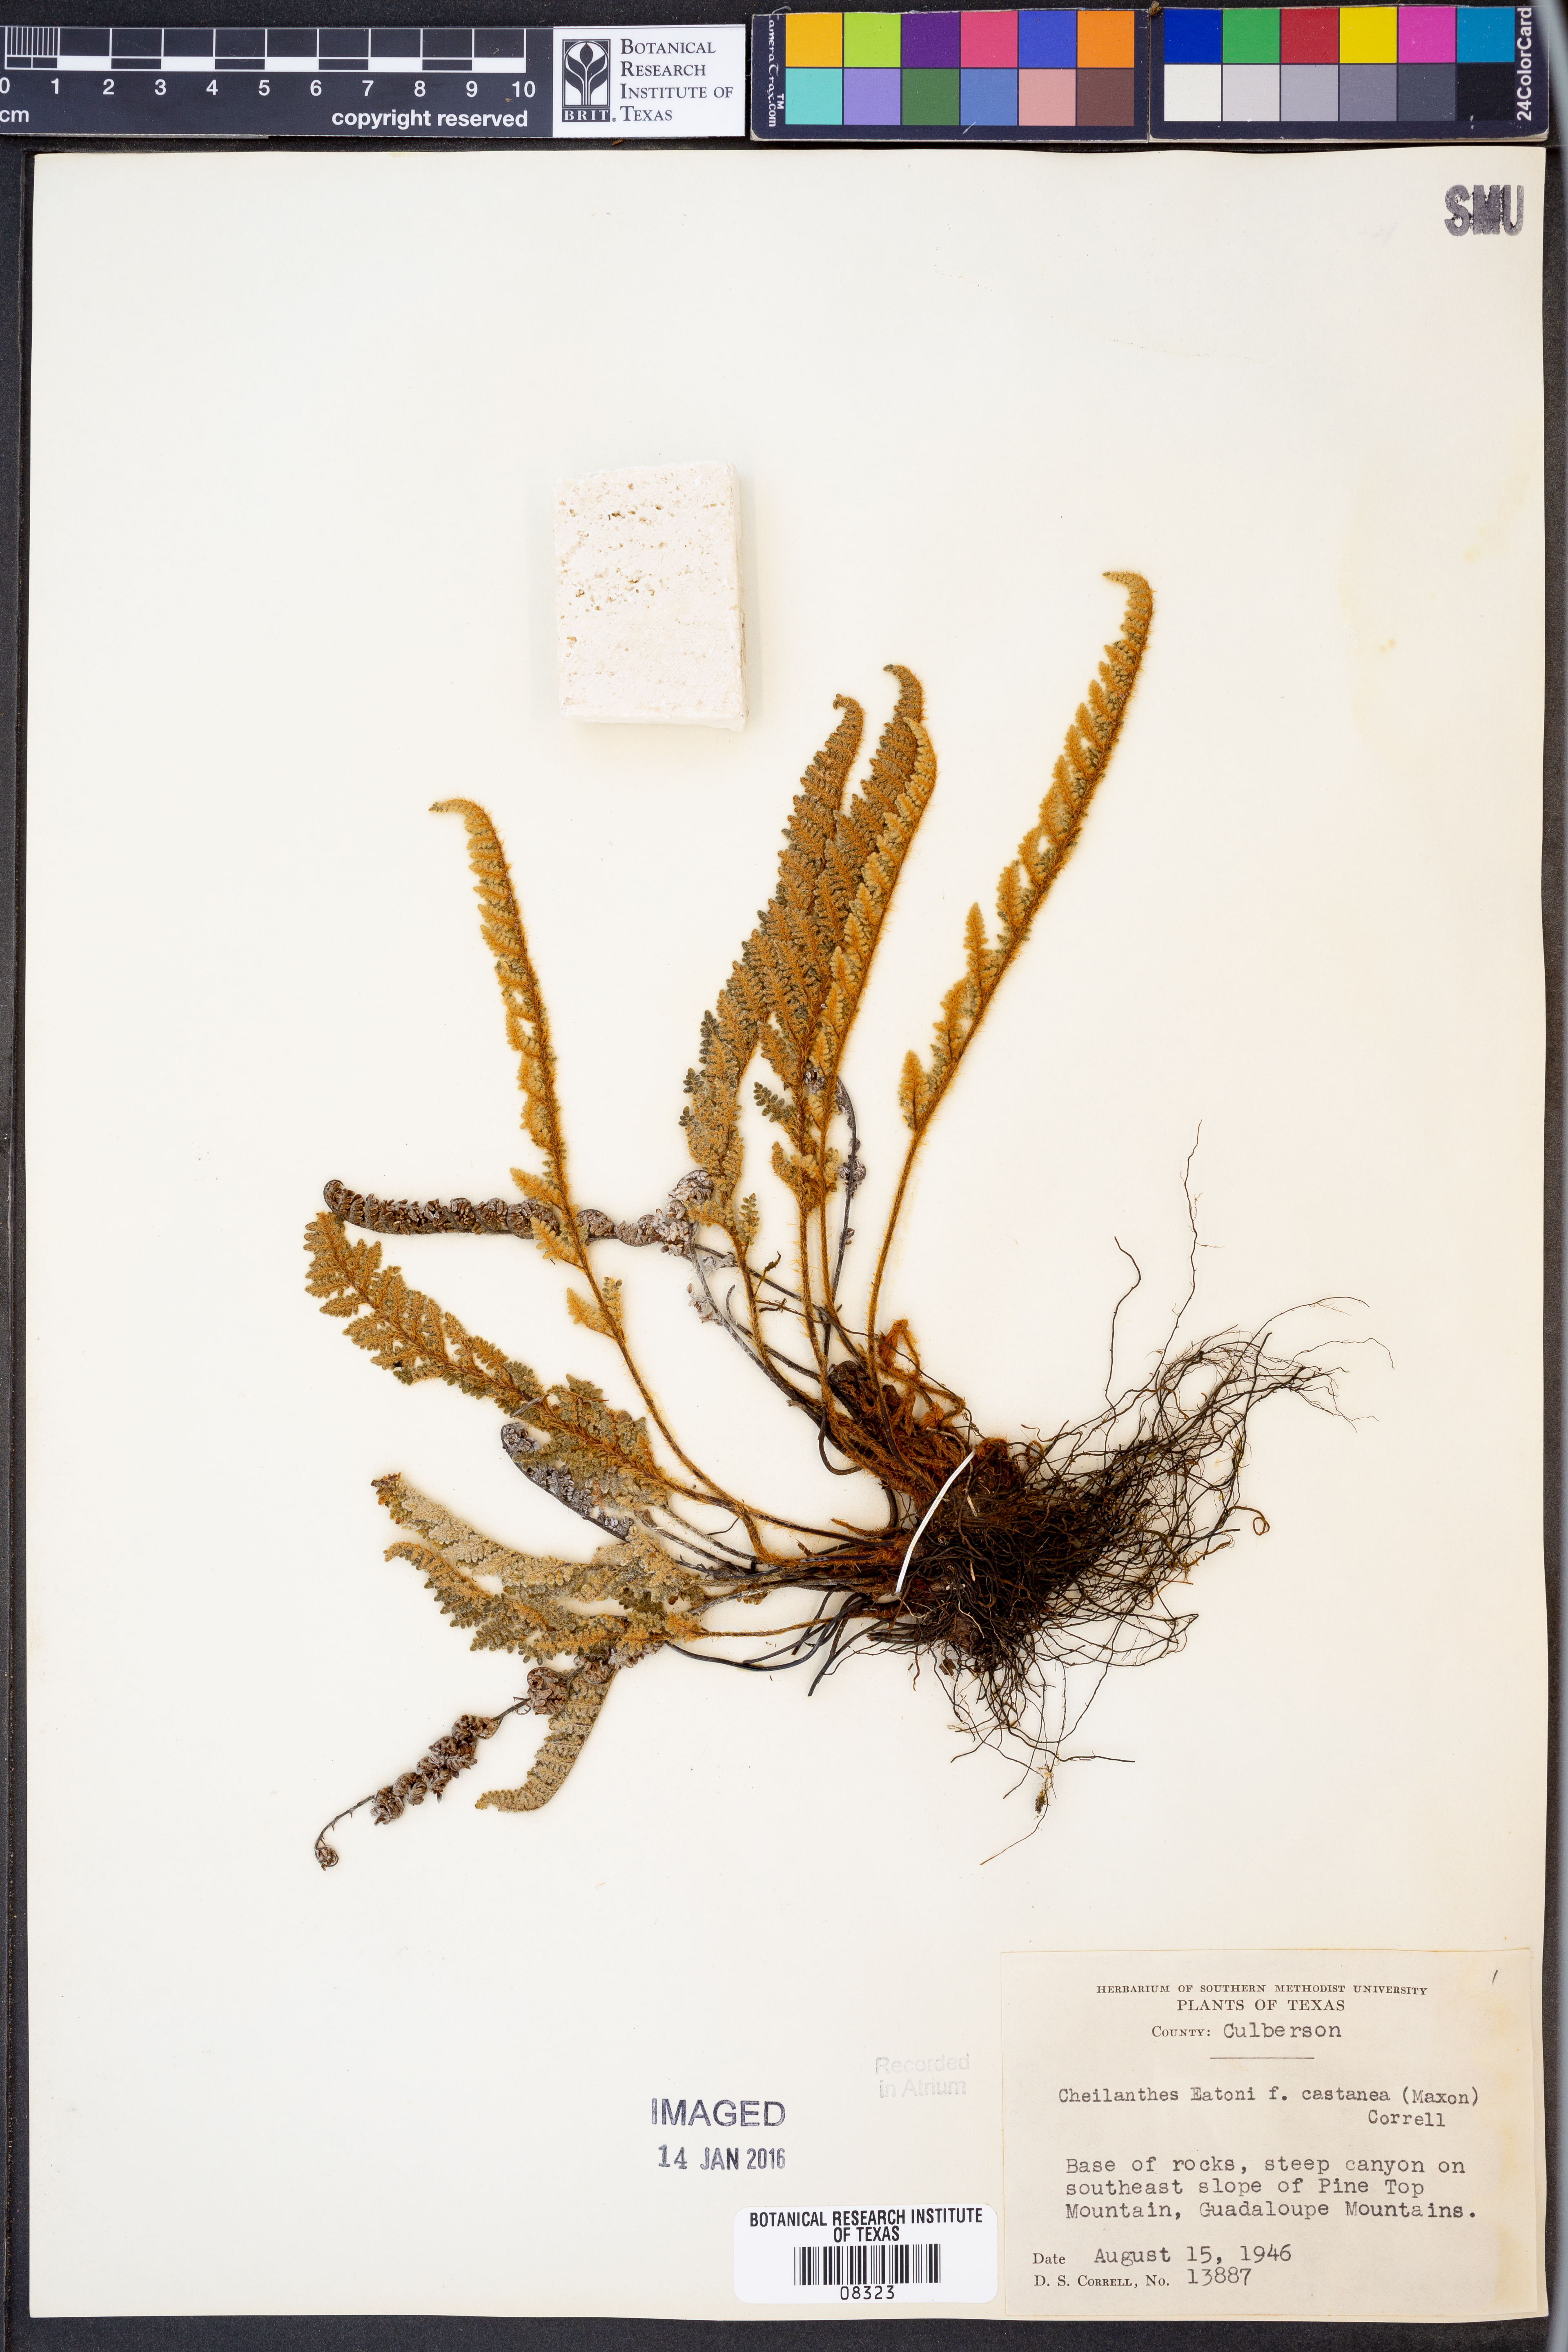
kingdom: Plantae
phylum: Tracheophyta
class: Polypodiopsida
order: Polypodiales
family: Pteridaceae
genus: Myriopteris
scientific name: Myriopteris rufa
